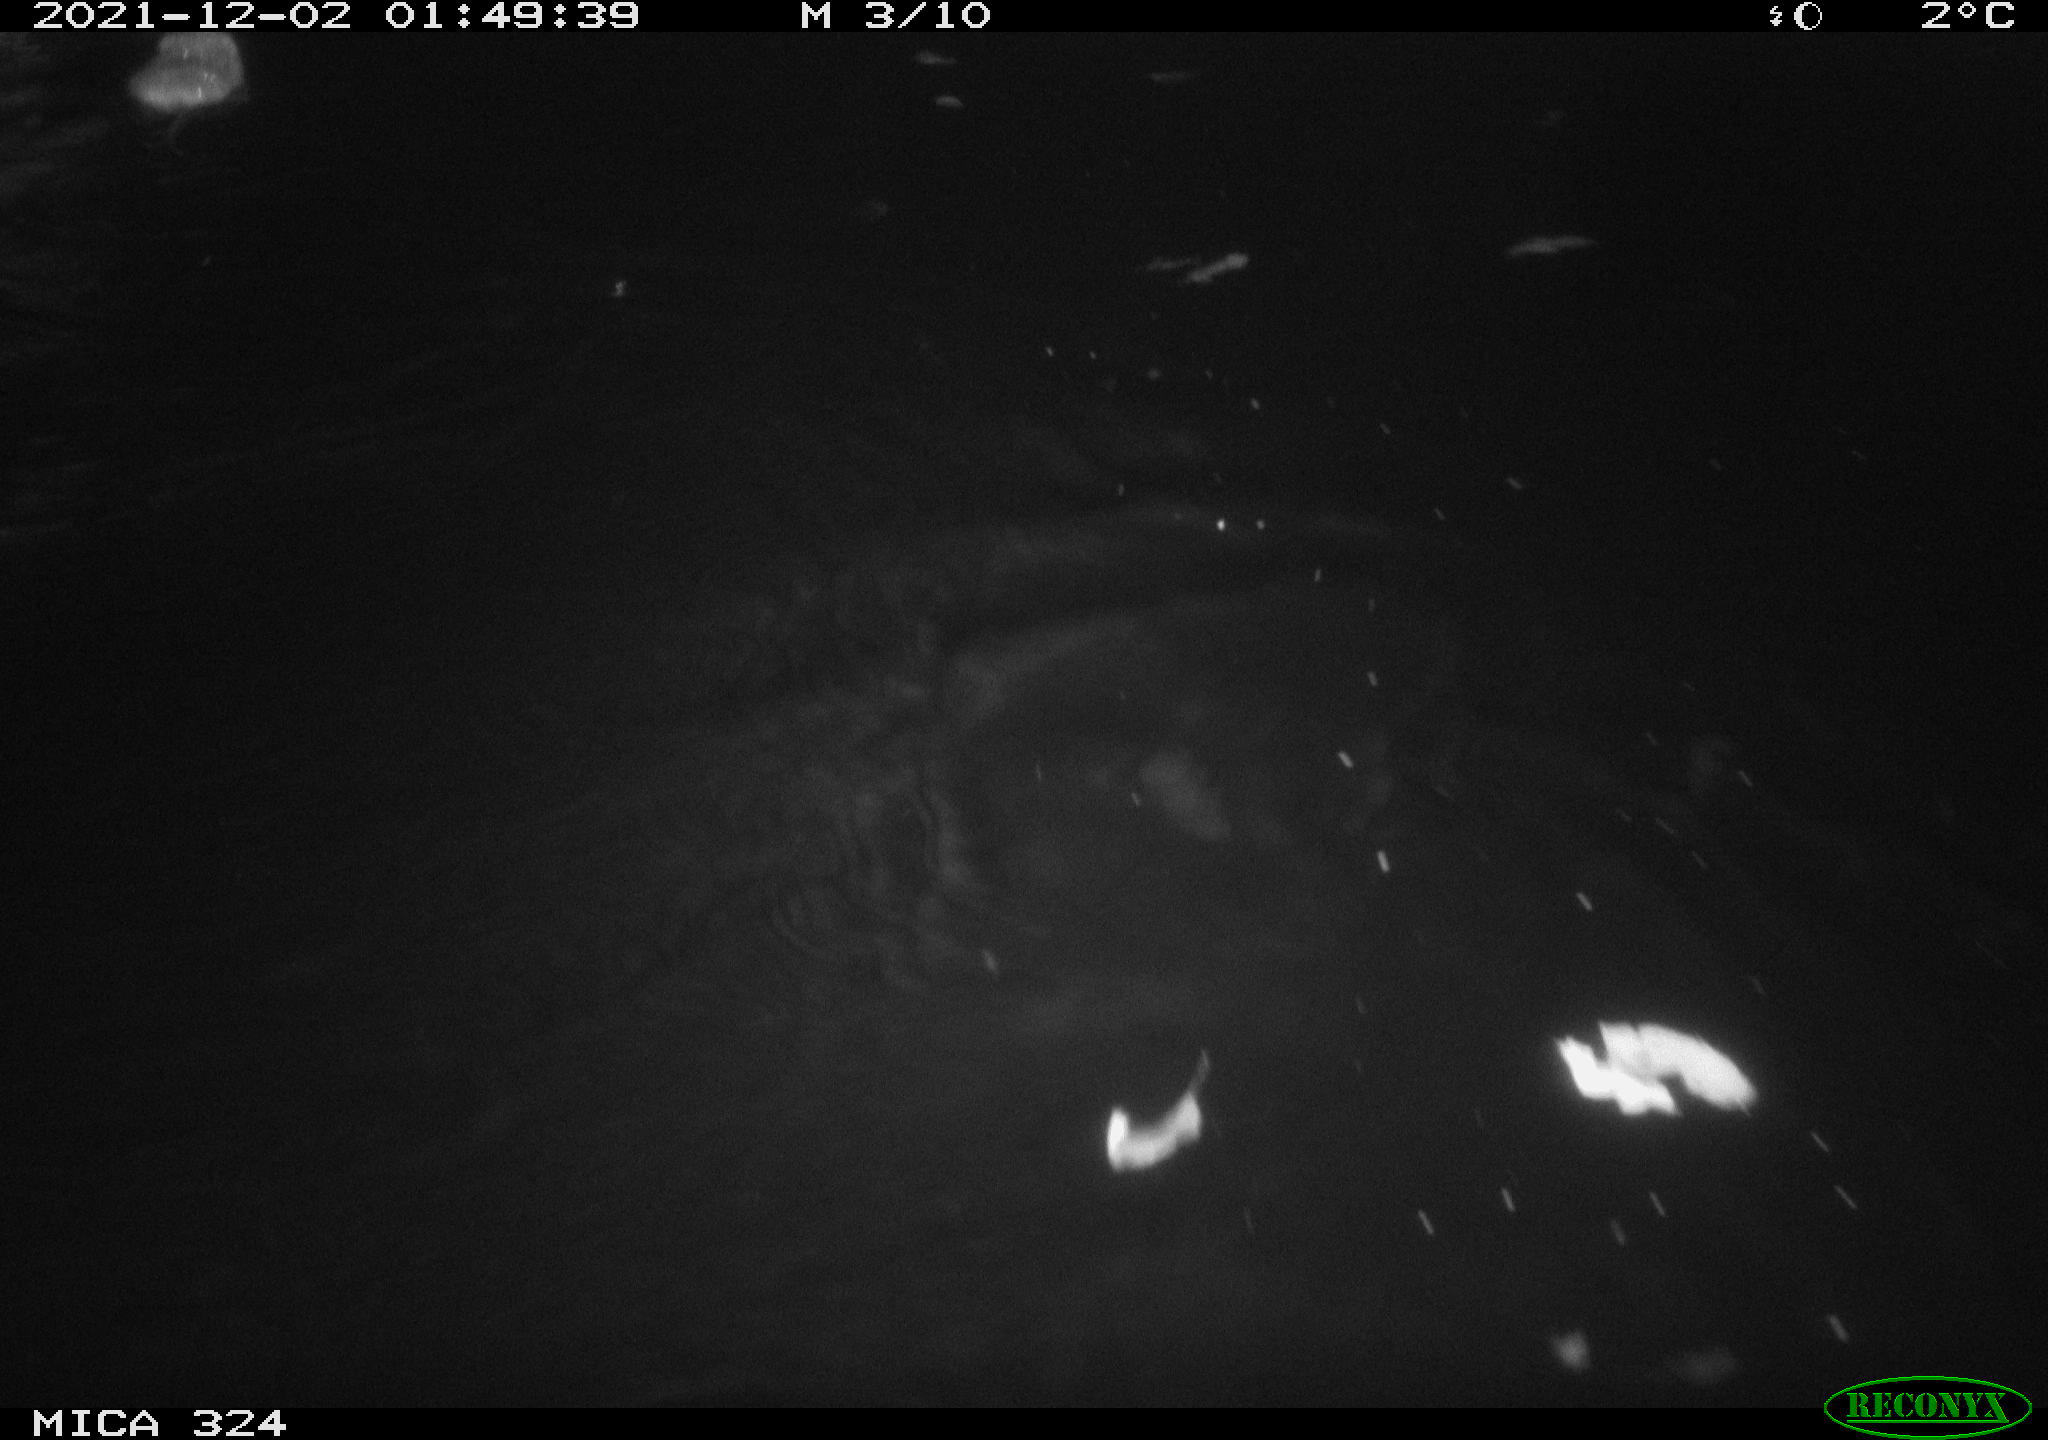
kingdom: Animalia
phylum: Chordata
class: Mammalia
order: Rodentia
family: Cricetidae
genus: Ondatra
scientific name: Ondatra zibethicus
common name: Muskrat
